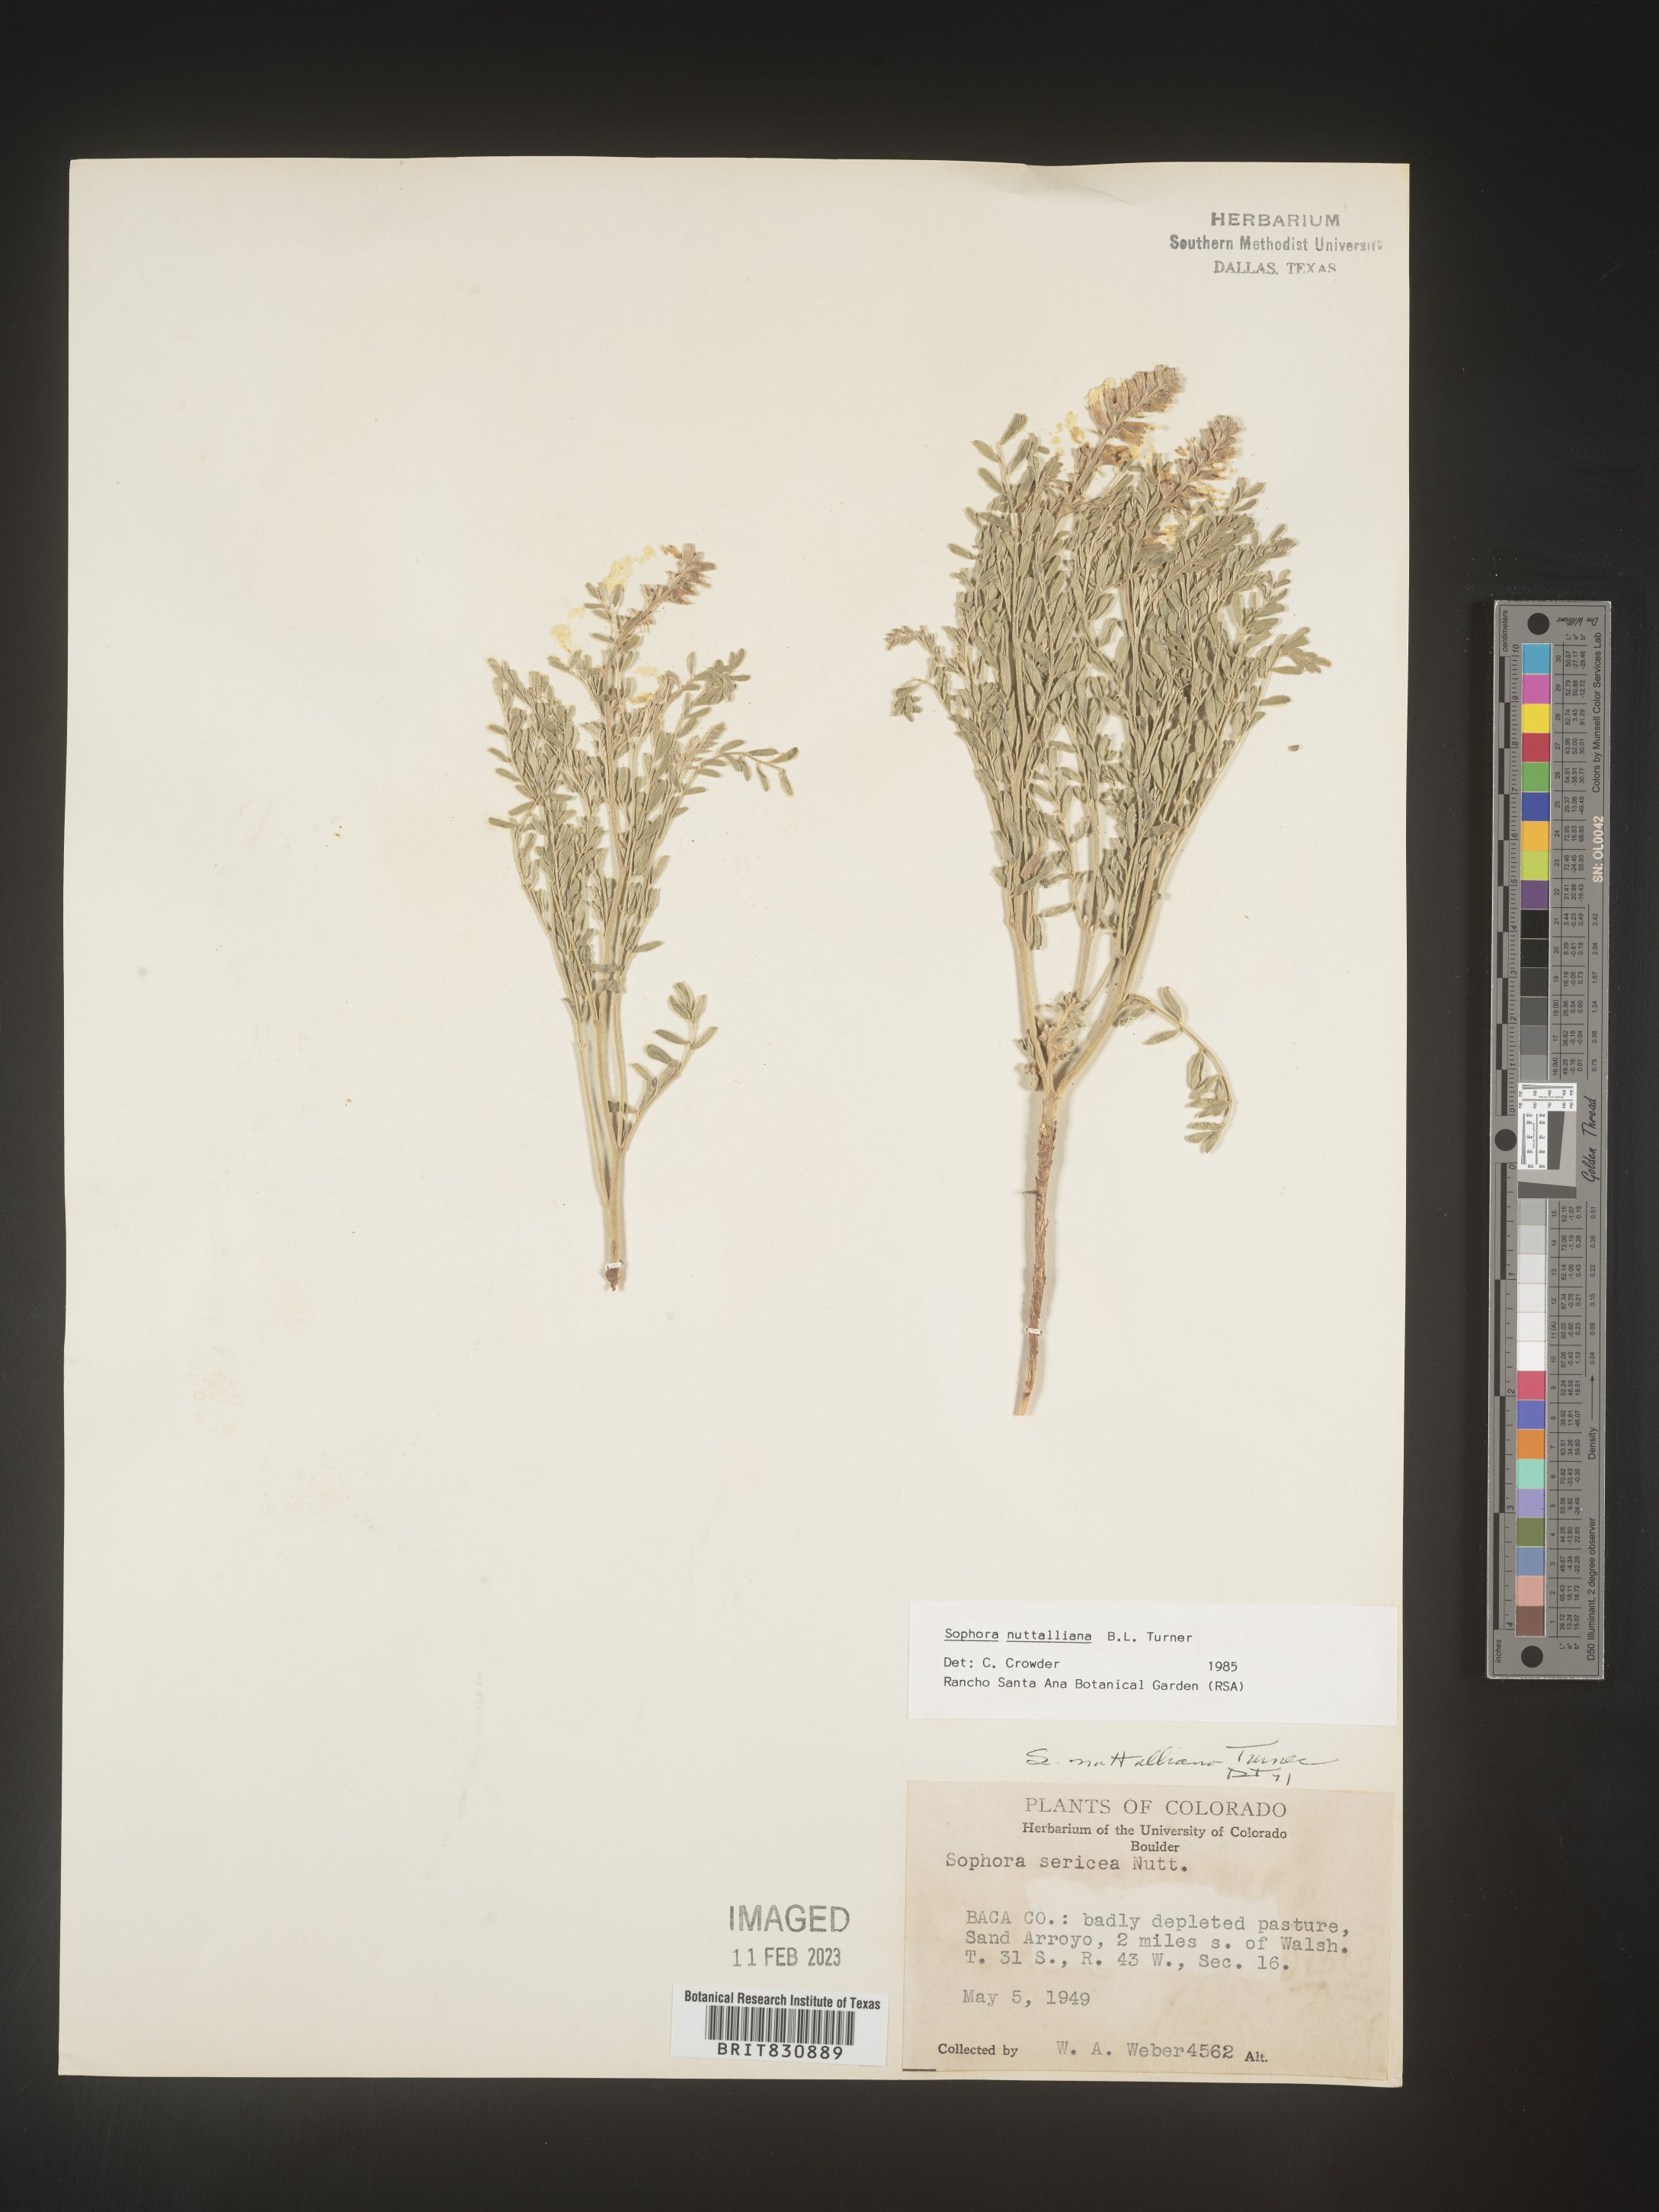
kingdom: Plantae
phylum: Tracheophyta
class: Magnoliopsida
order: Fabales
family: Fabaceae
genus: Sophora
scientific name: Sophora nuttalliana
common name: Silky sophora
